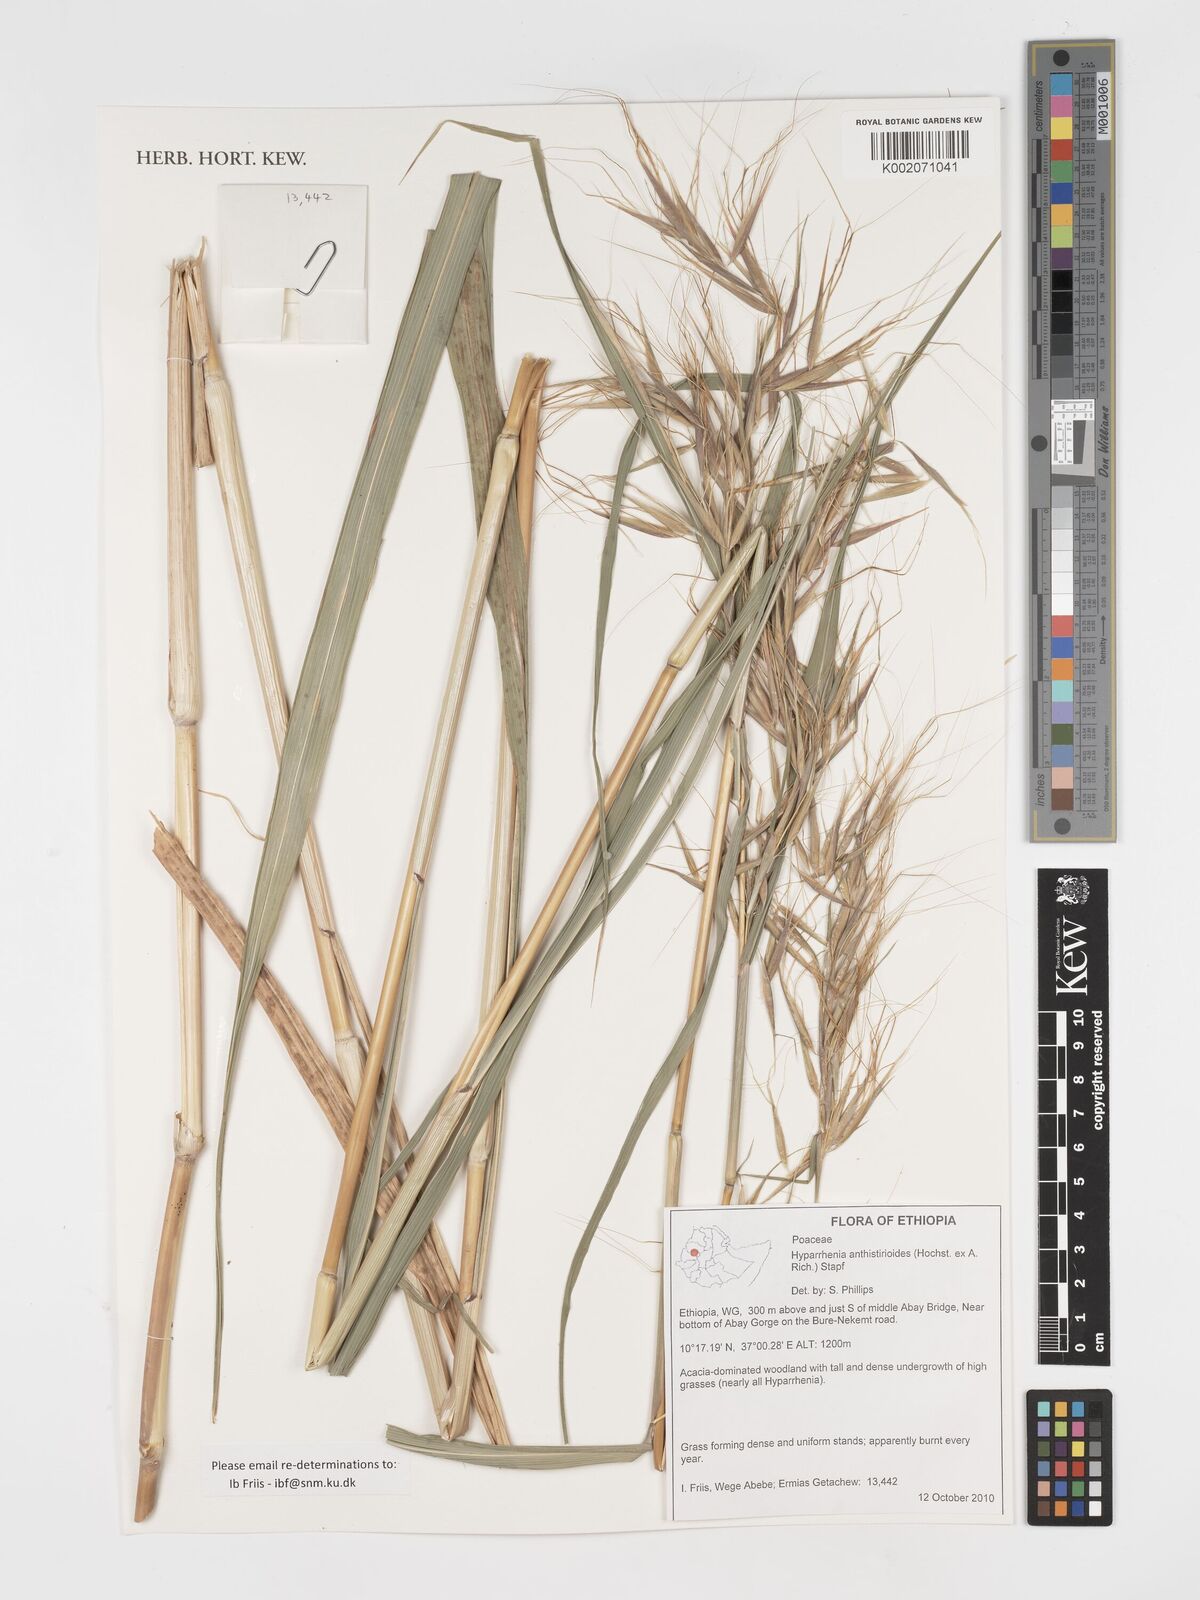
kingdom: Plantae
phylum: Tracheophyta
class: Liliopsida
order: Poales
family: Poaceae
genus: Hyparrhenia
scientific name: Hyparrhenia anthistirioides
